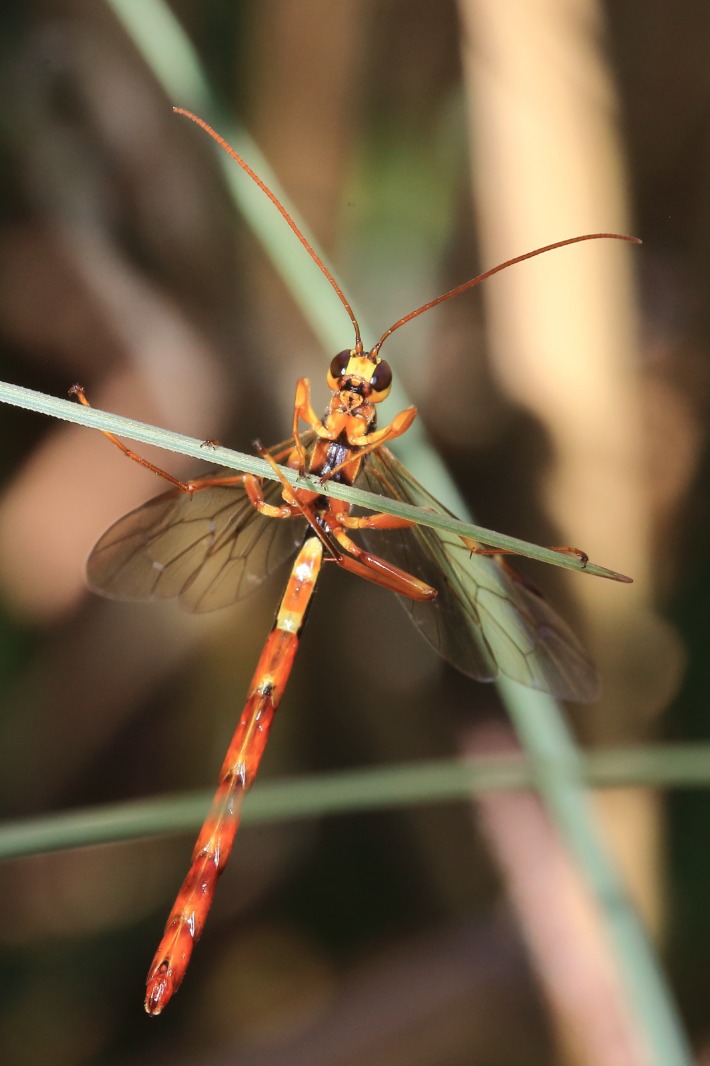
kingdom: Animalia
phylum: Arthropoda
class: Insecta
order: Hymenoptera
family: Ichneumonidae
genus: Megarhyssa
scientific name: Megarhyssa perlata
